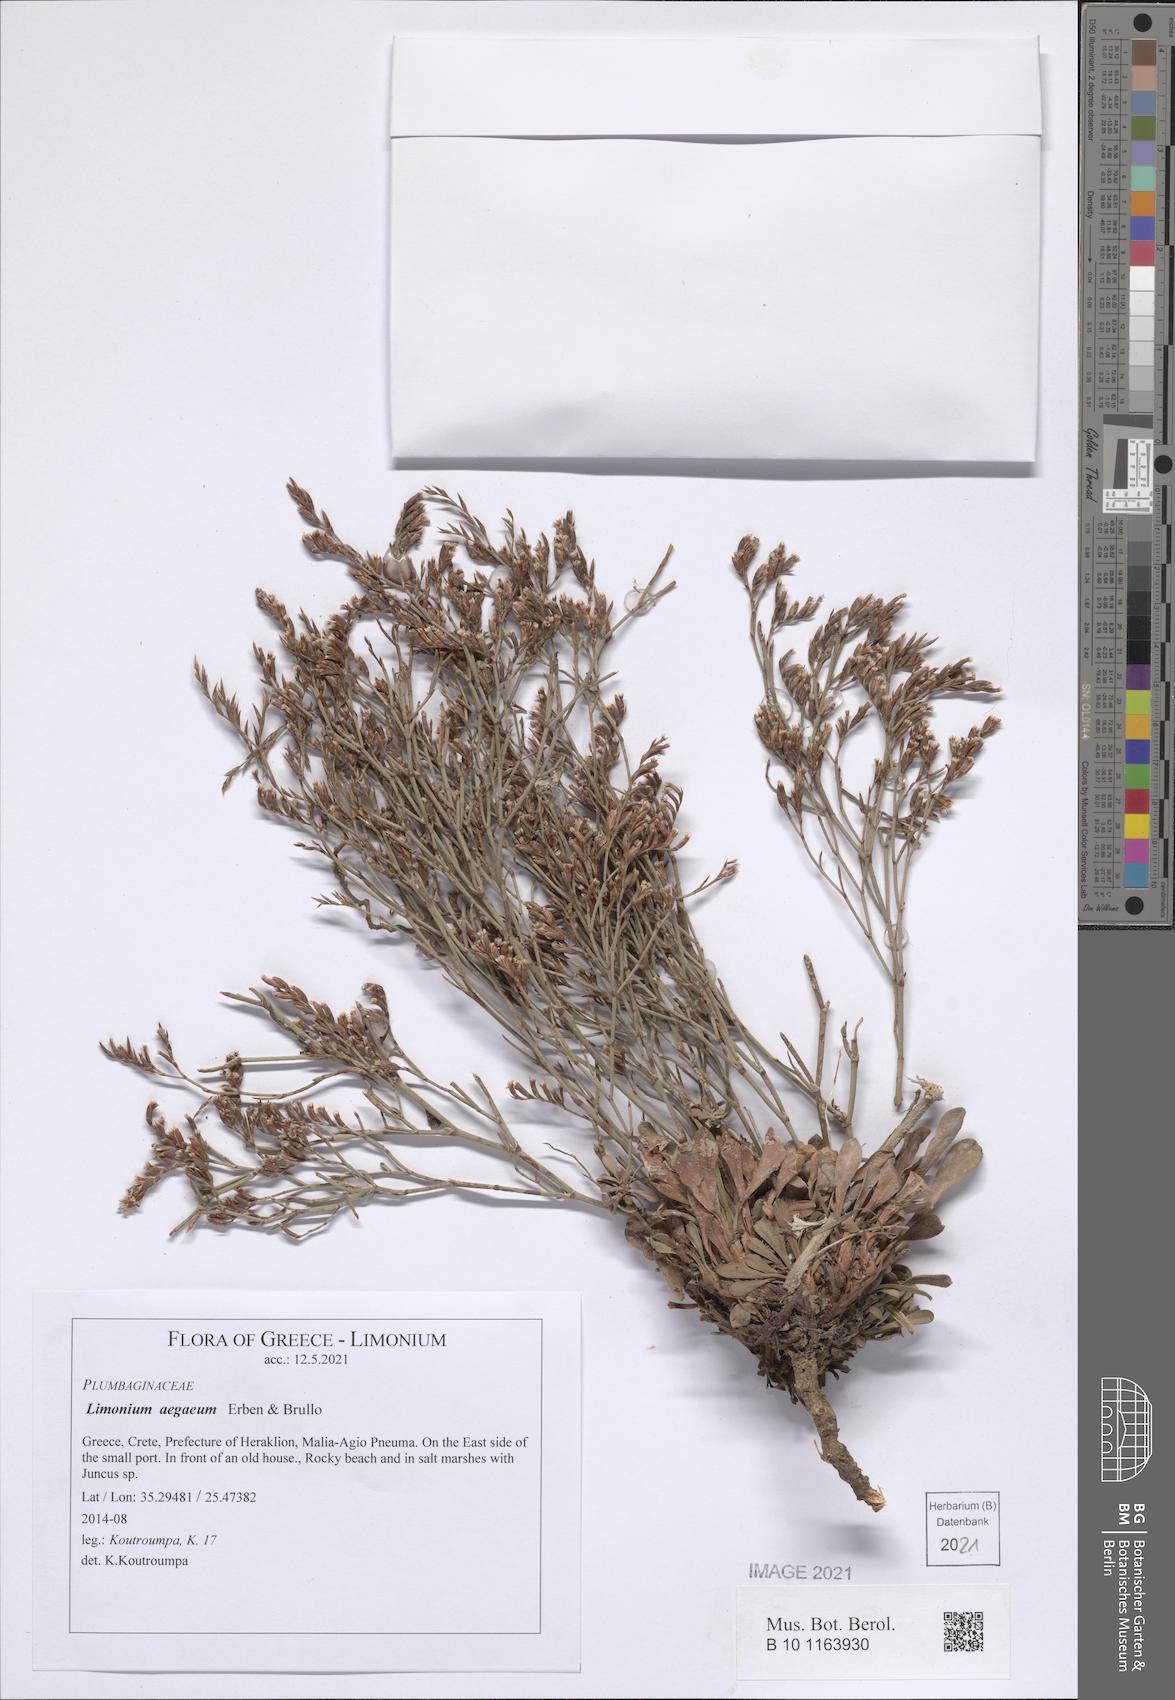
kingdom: Plantae
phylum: Tracheophyta
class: Magnoliopsida
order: Caryophyllales
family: Plumbaginaceae
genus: Limonium
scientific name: Limonium aegaeum
